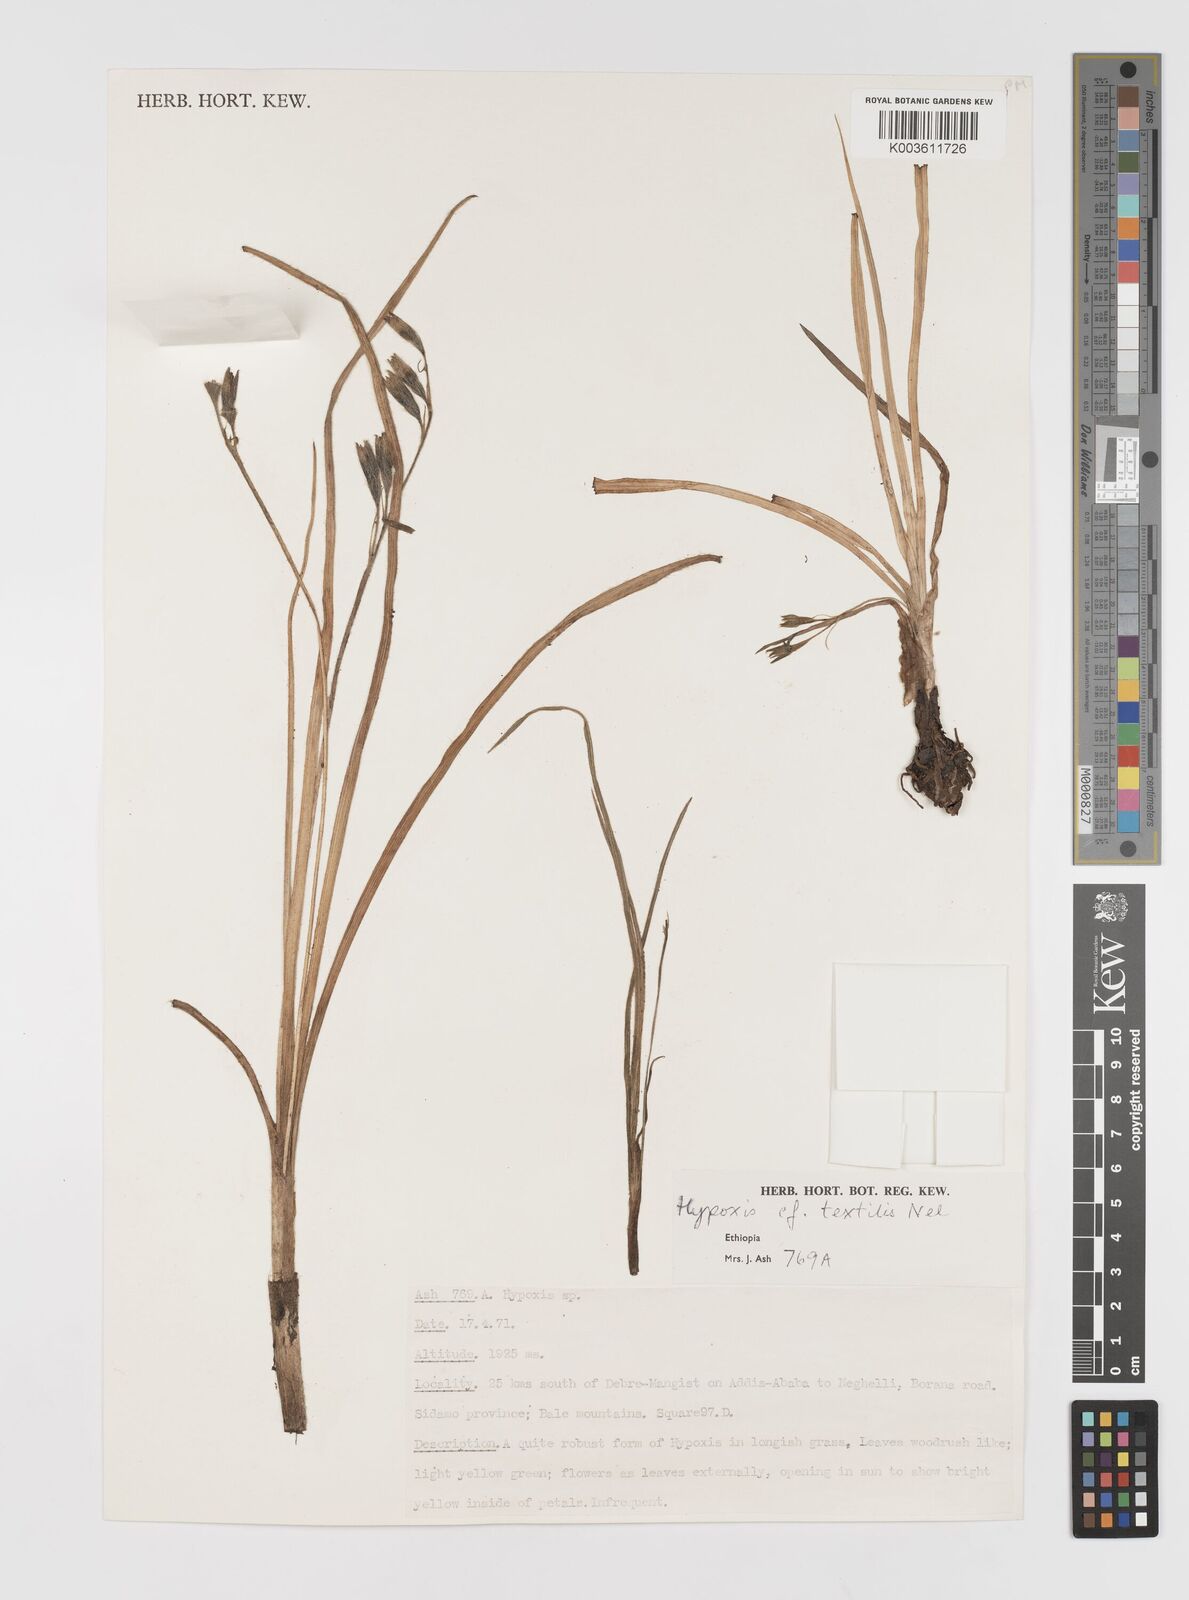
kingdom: Plantae
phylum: Tracheophyta
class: Liliopsida
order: Asparagales
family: Hypoxidaceae
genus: Hypoxis
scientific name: Hypoxis
